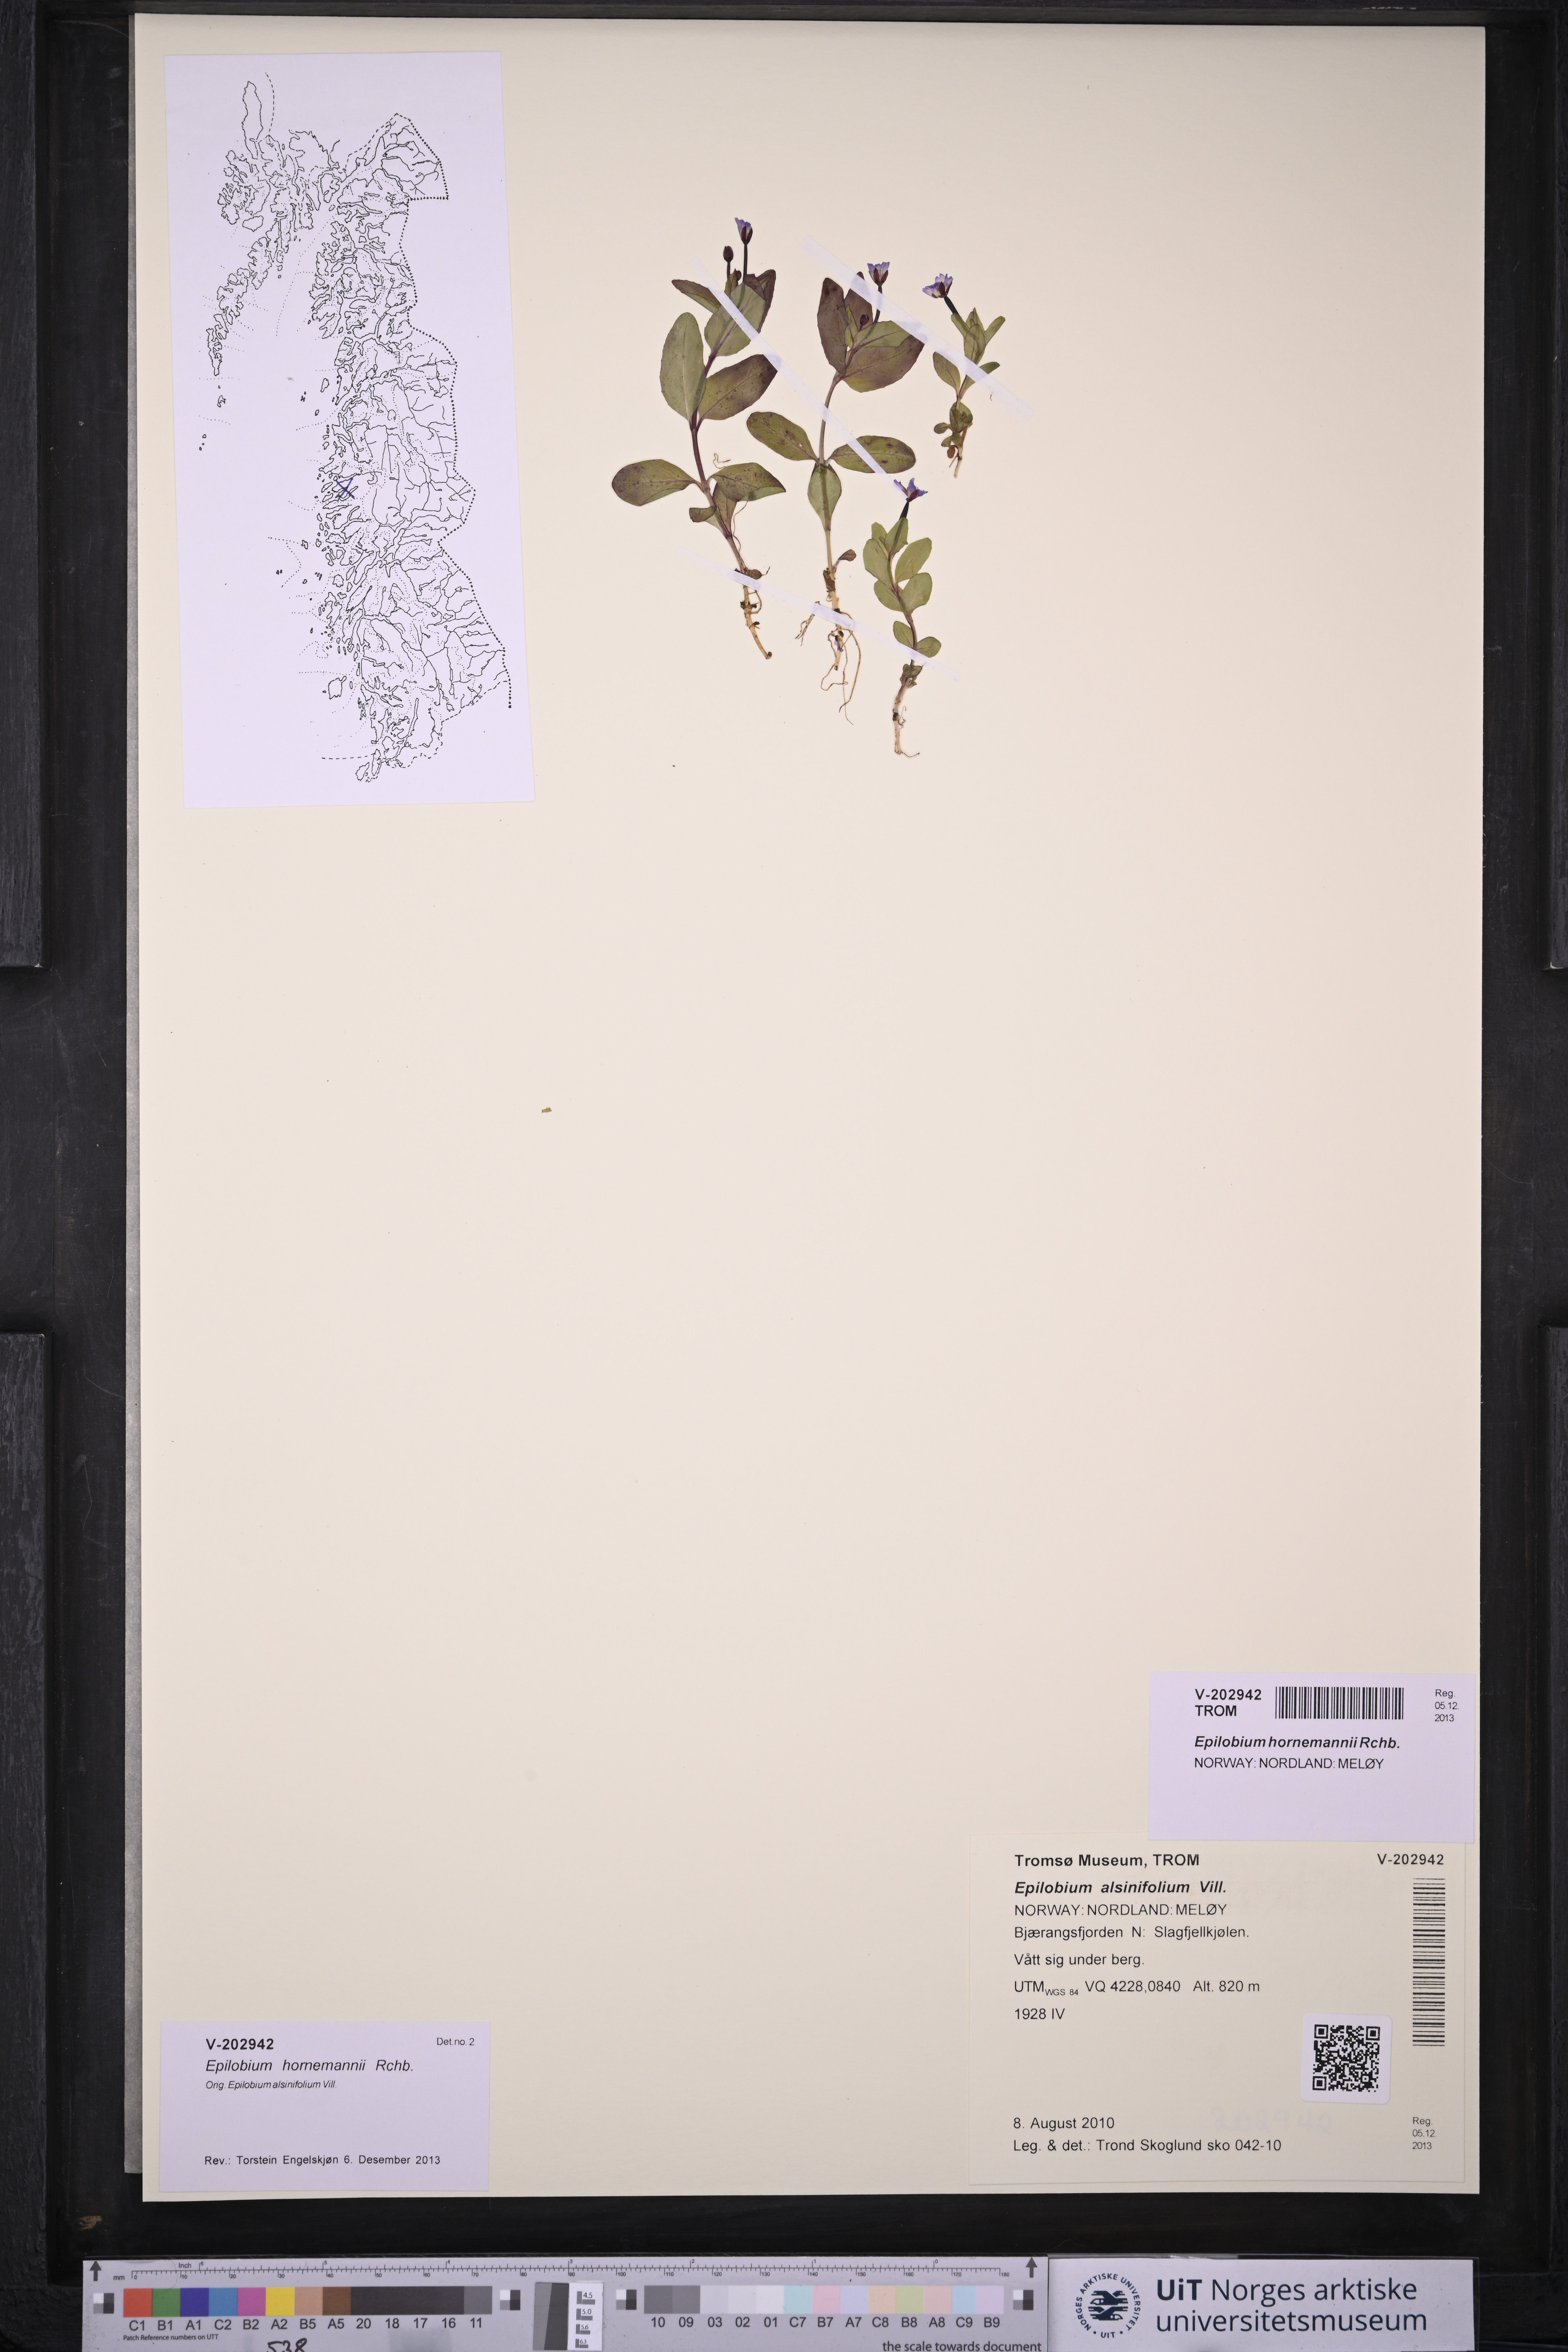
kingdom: Plantae
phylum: Tracheophyta
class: Magnoliopsida
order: Myrtales
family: Onagraceae
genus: Epilobium
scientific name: Epilobium hornemannii
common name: Hornemann's willowherb
